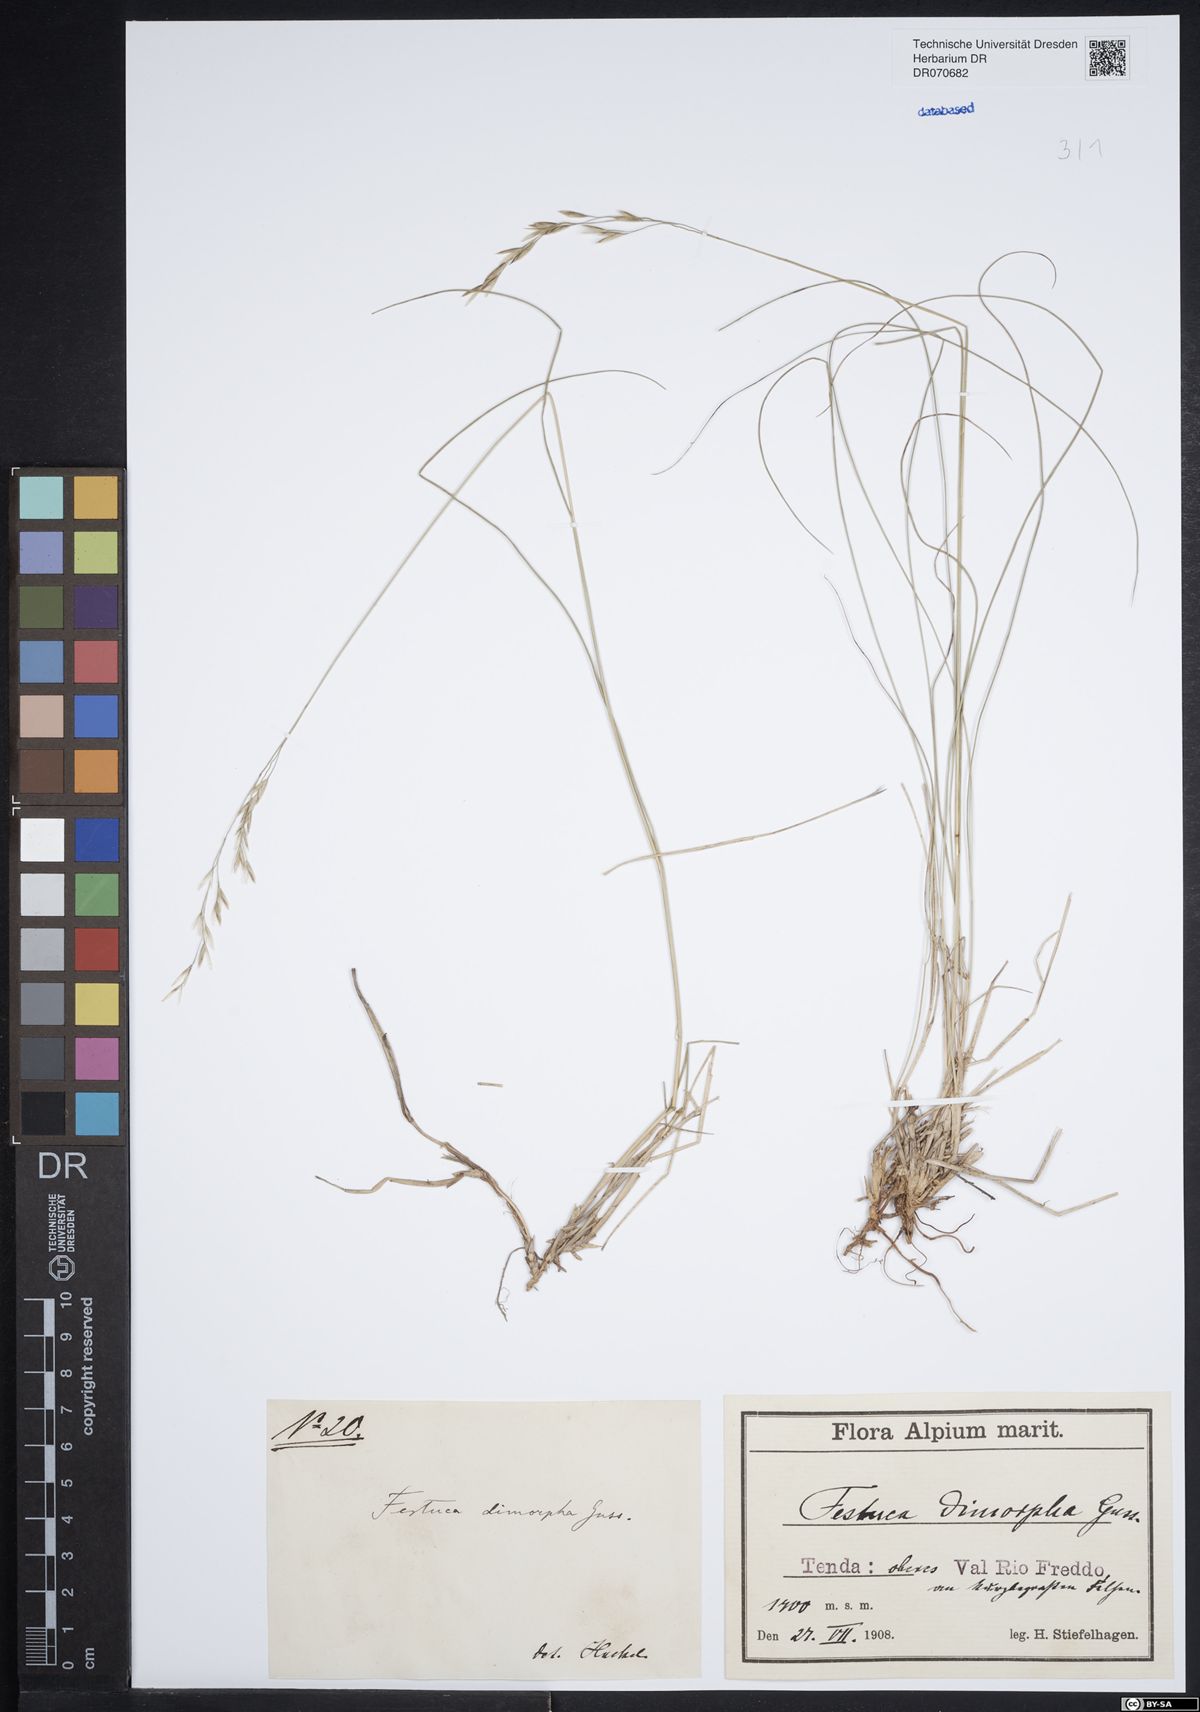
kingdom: Plantae
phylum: Tracheophyta
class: Liliopsida
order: Poales
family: Poaceae
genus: Festuca
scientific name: Festuca dimorpha
